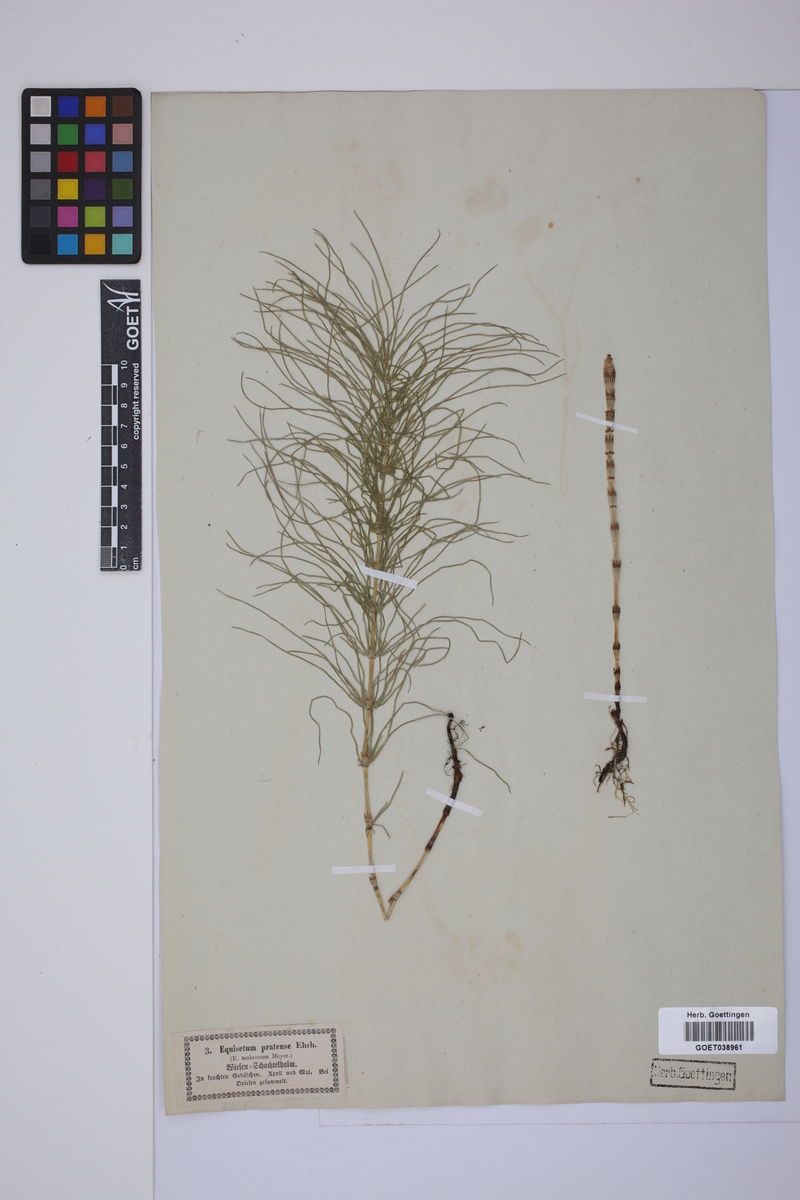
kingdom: Plantae
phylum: Tracheophyta
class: Polypodiopsida
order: Equisetales
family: Equisetaceae
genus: Equisetum
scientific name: Equisetum pratense
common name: Meadow horsetail
